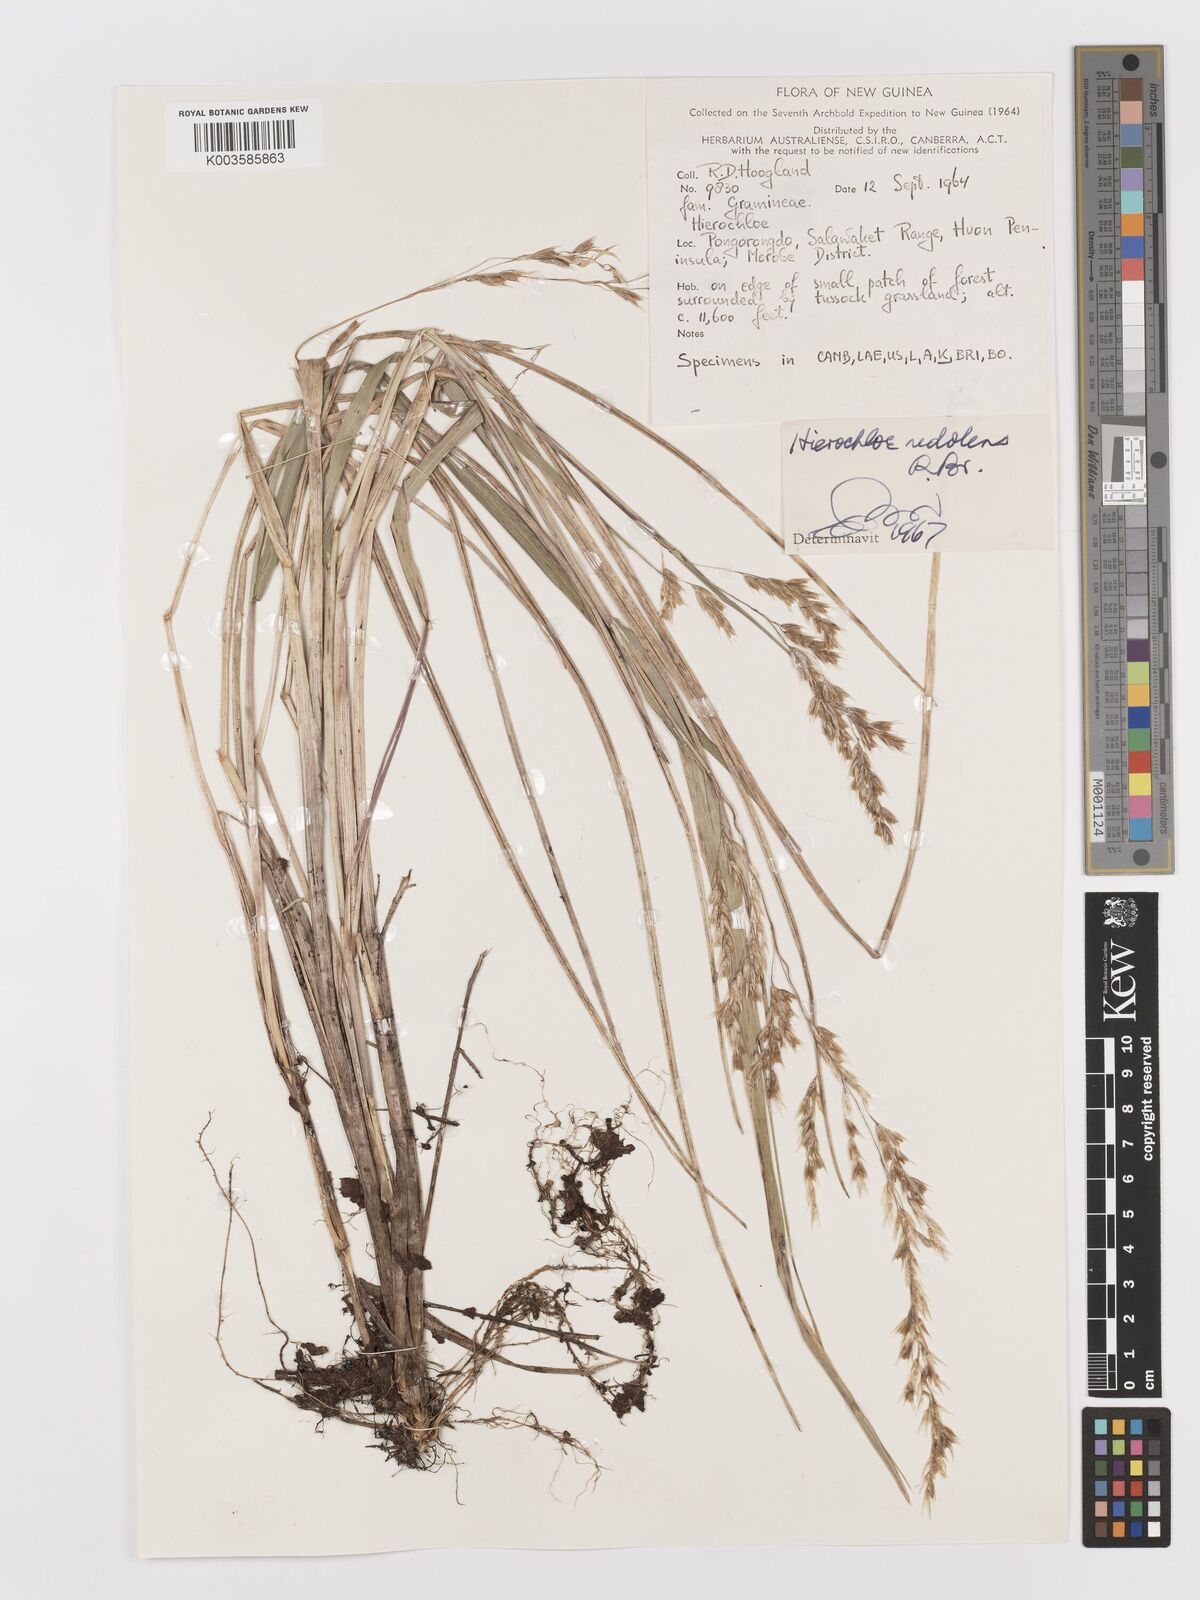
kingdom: Plantae
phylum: Tracheophyta
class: Liliopsida
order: Poales
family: Poaceae
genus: Anthoxanthum
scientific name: Anthoxanthum redolens
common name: Sweet holy grass
